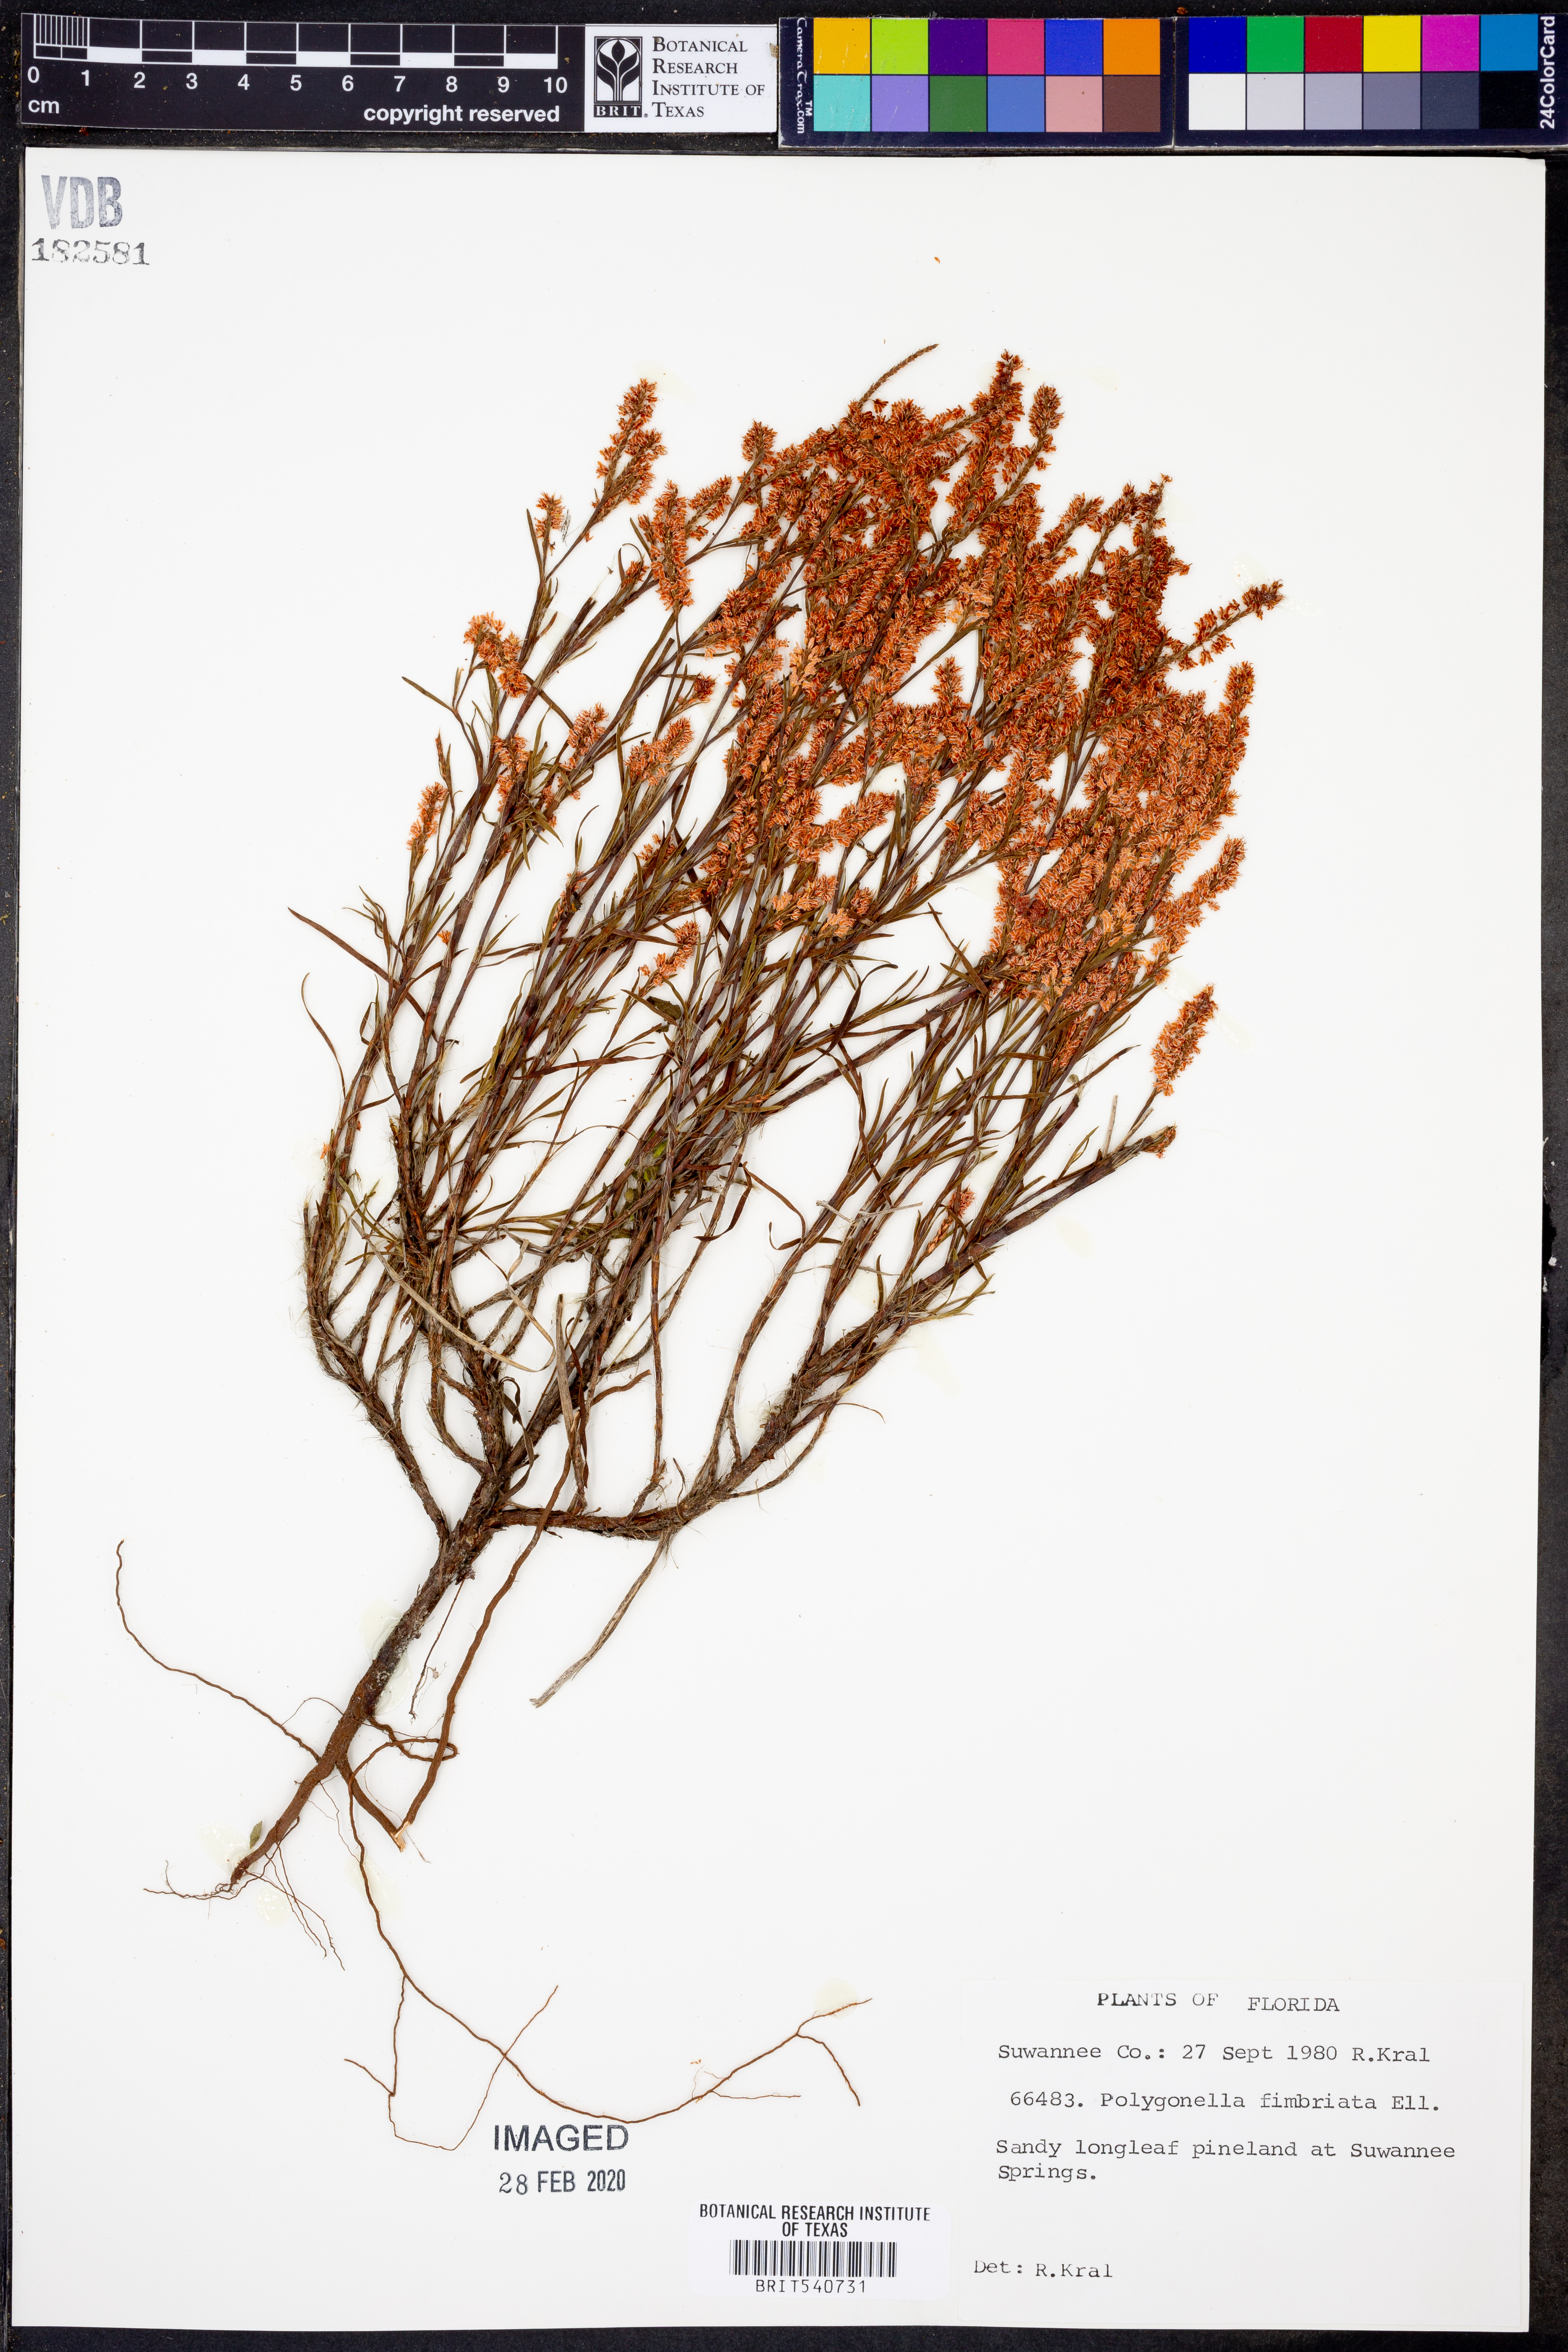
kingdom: Plantae
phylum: Tracheophyta
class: Magnoliopsida
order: Caryophyllales
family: Polygonaceae
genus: Polygonella
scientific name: Polygonella fimbriata
